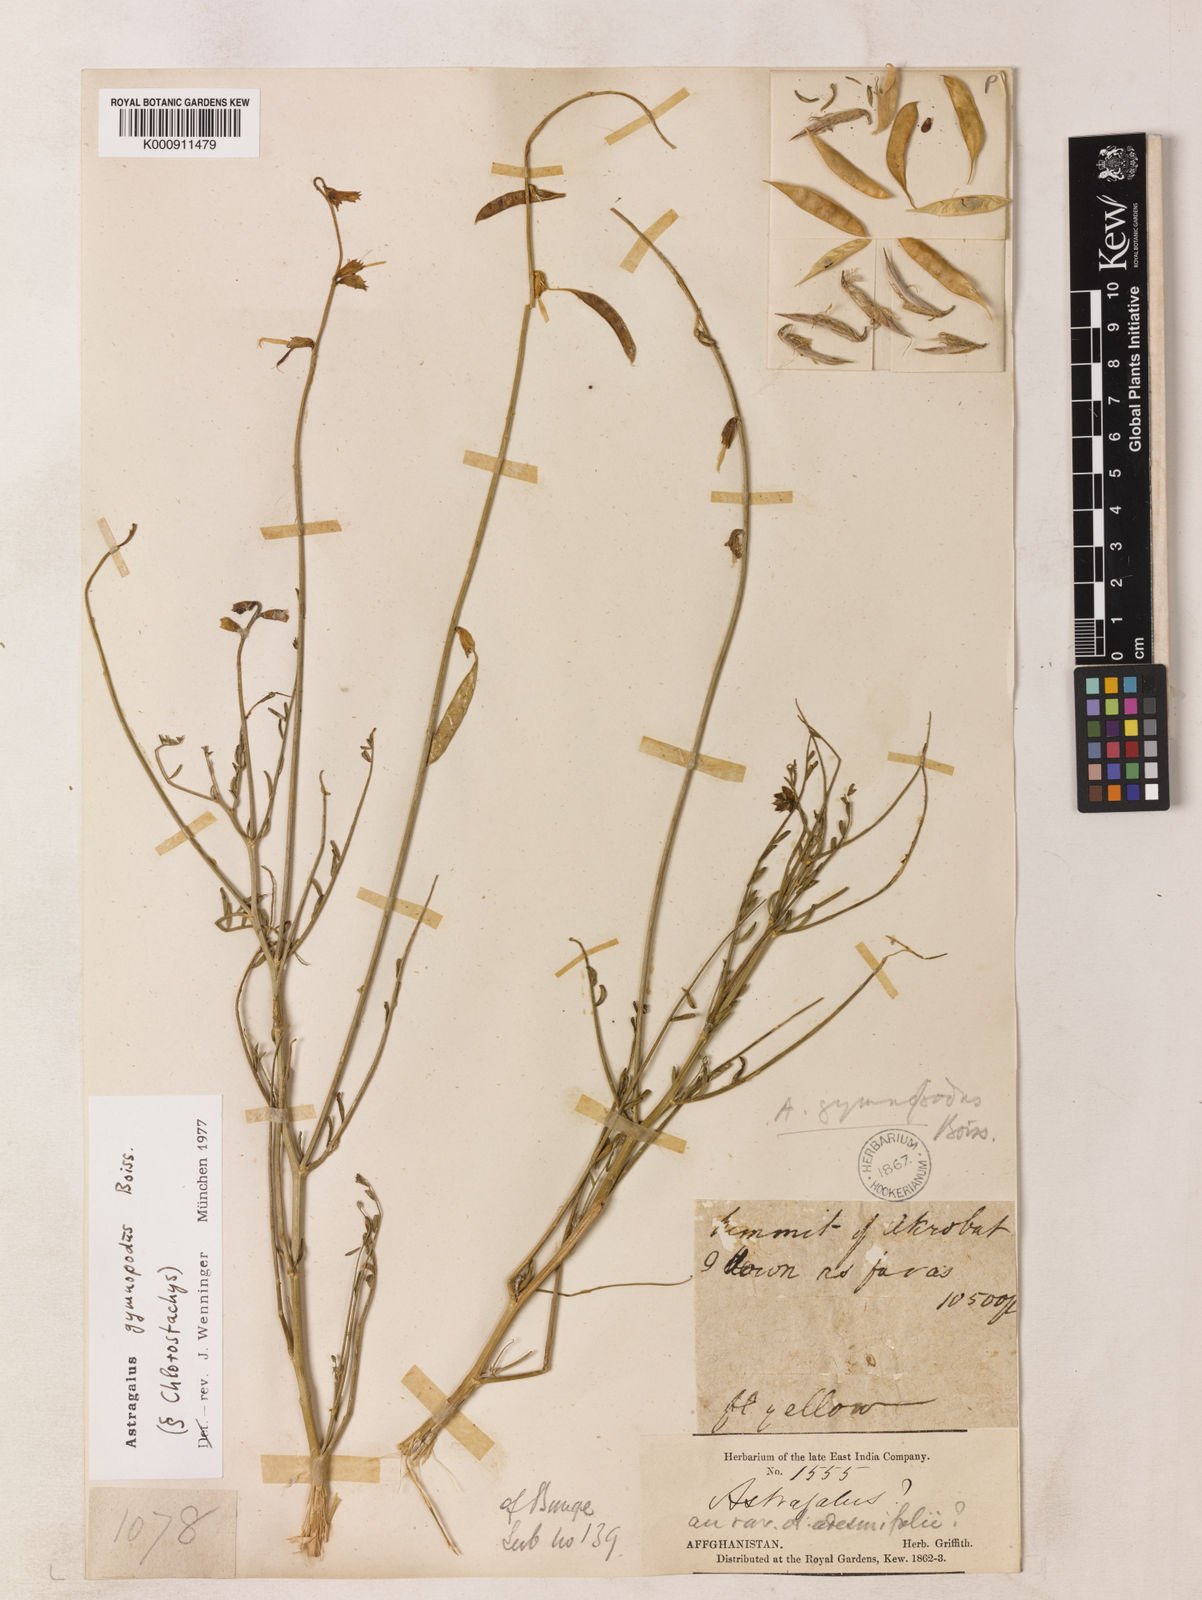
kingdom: Plantae
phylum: Tracheophyta
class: Magnoliopsida
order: Fabales
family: Fabaceae
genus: Astragalus
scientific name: Astragalus gymnopodus
